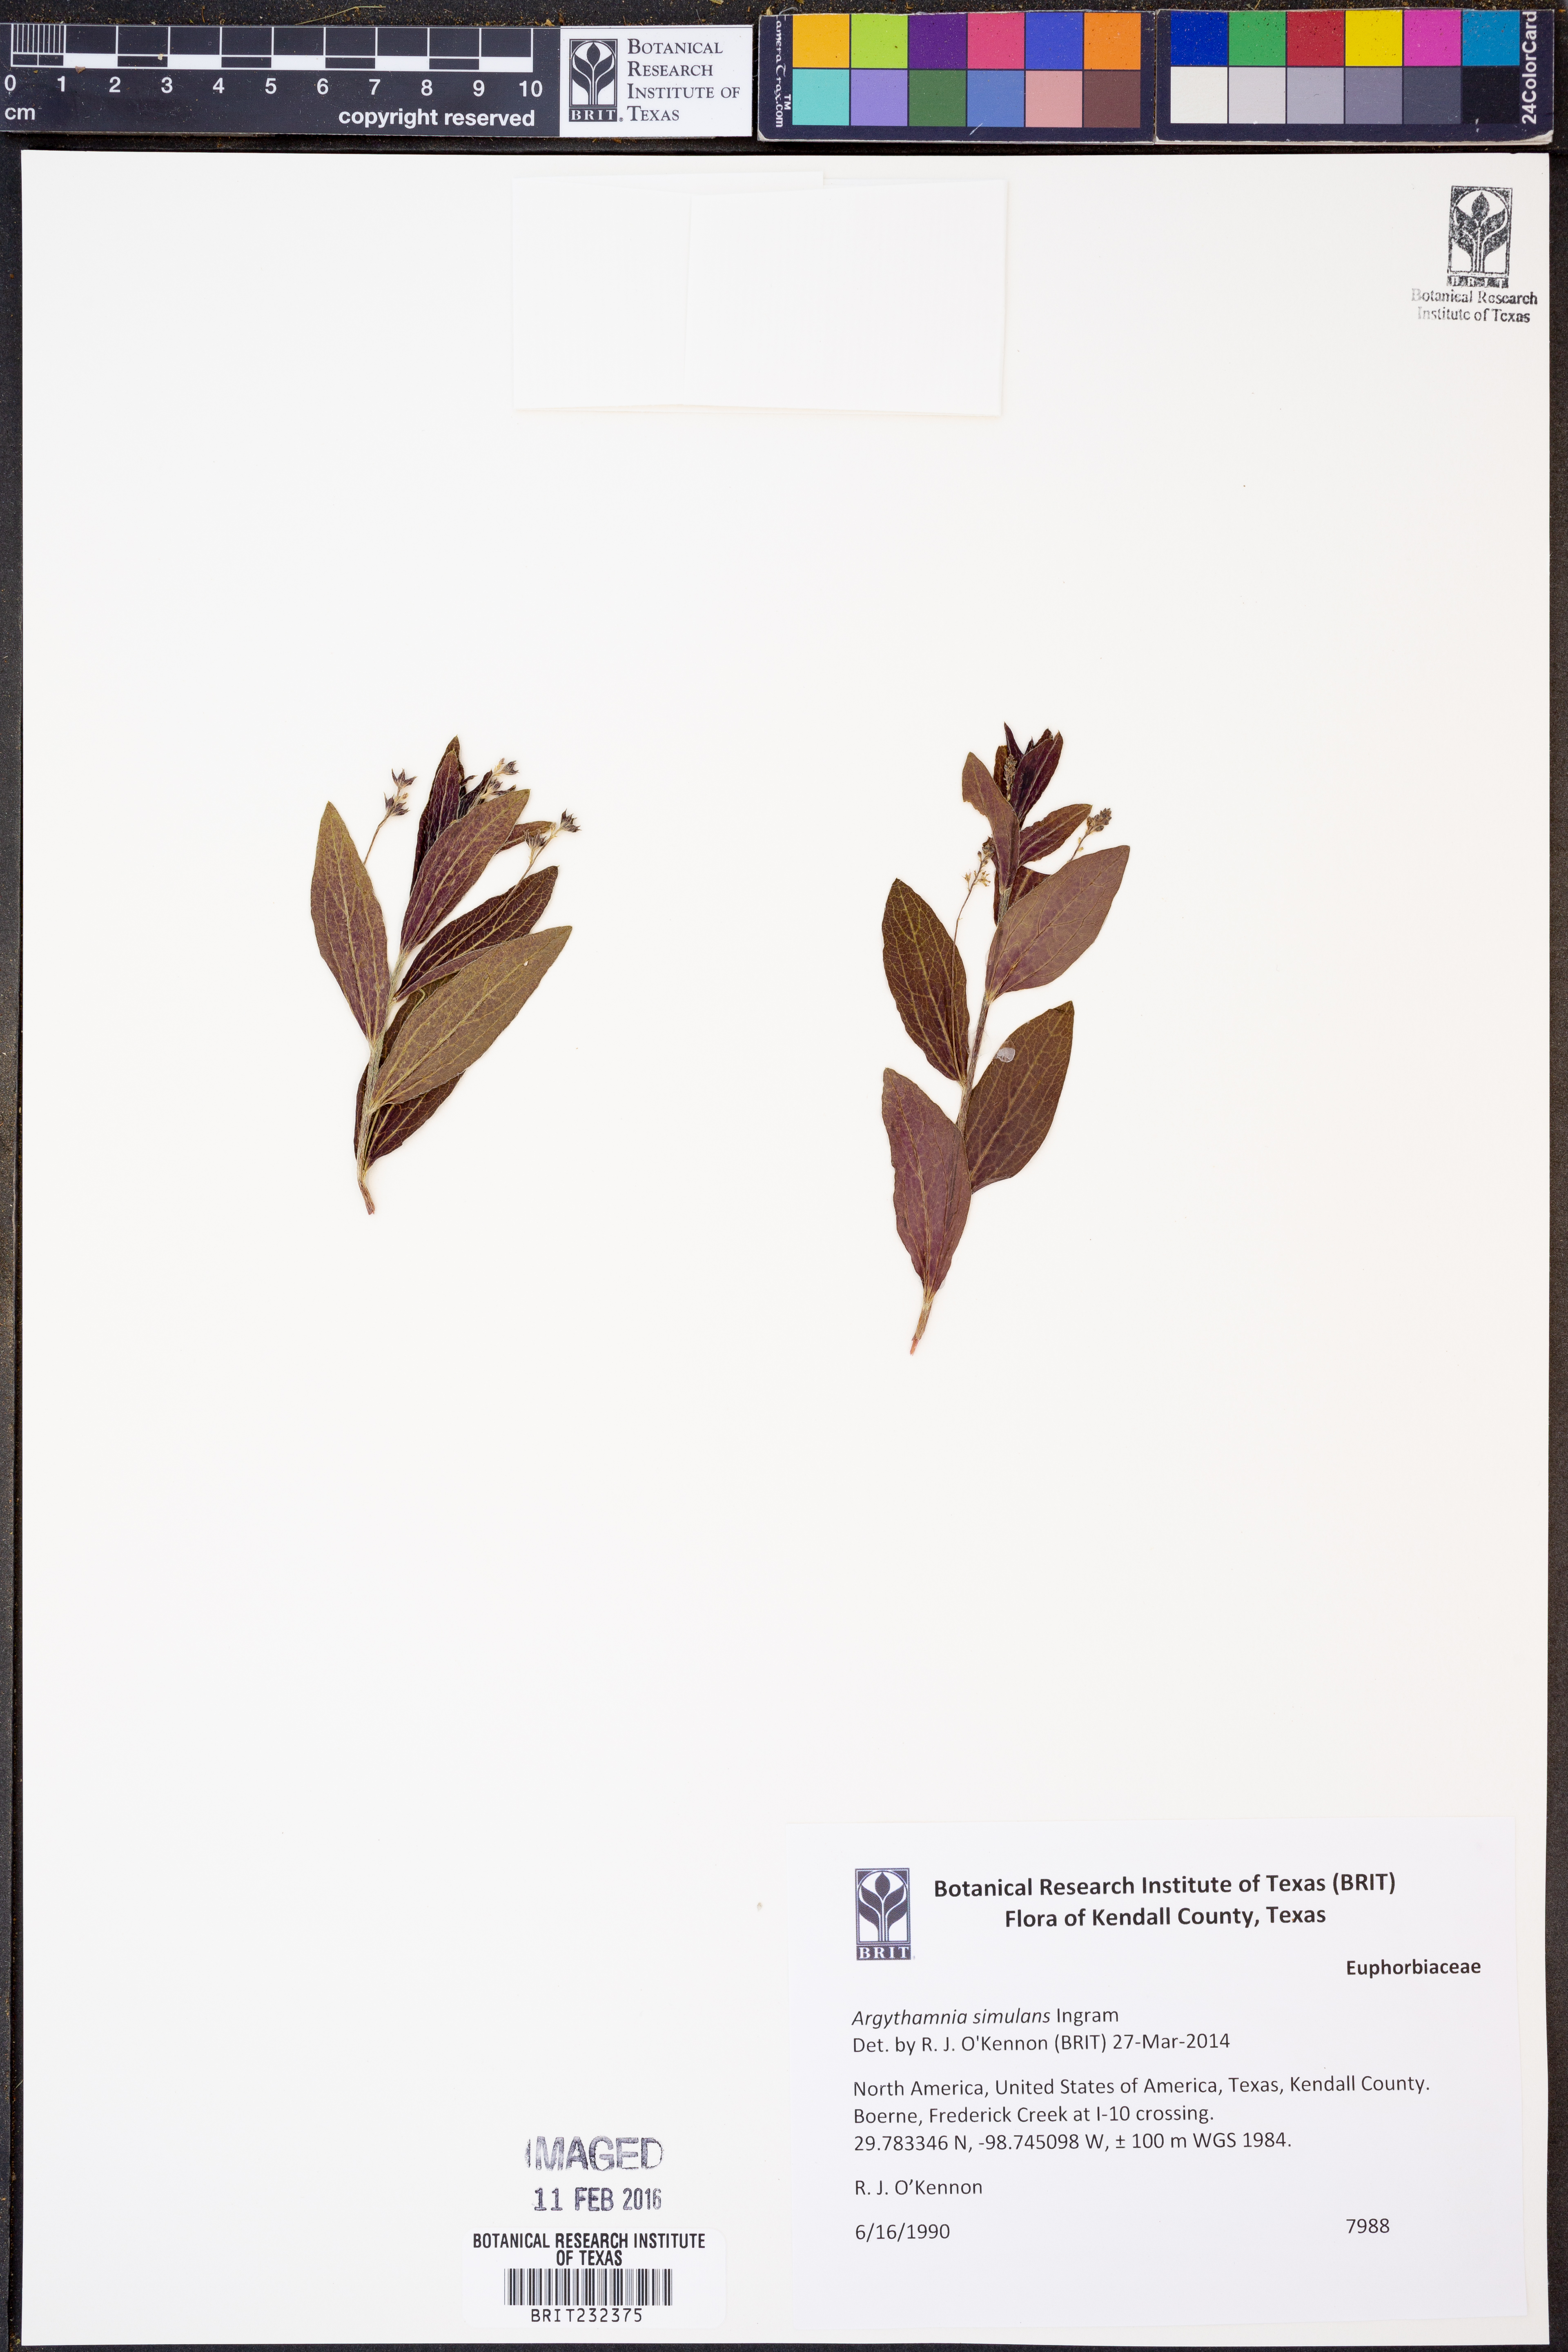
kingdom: Plantae
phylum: Tracheophyta
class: Magnoliopsida
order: Malpighiales
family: Euphorbiaceae
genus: Ditaxis
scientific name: Ditaxis simulans
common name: Plateau silverbush
